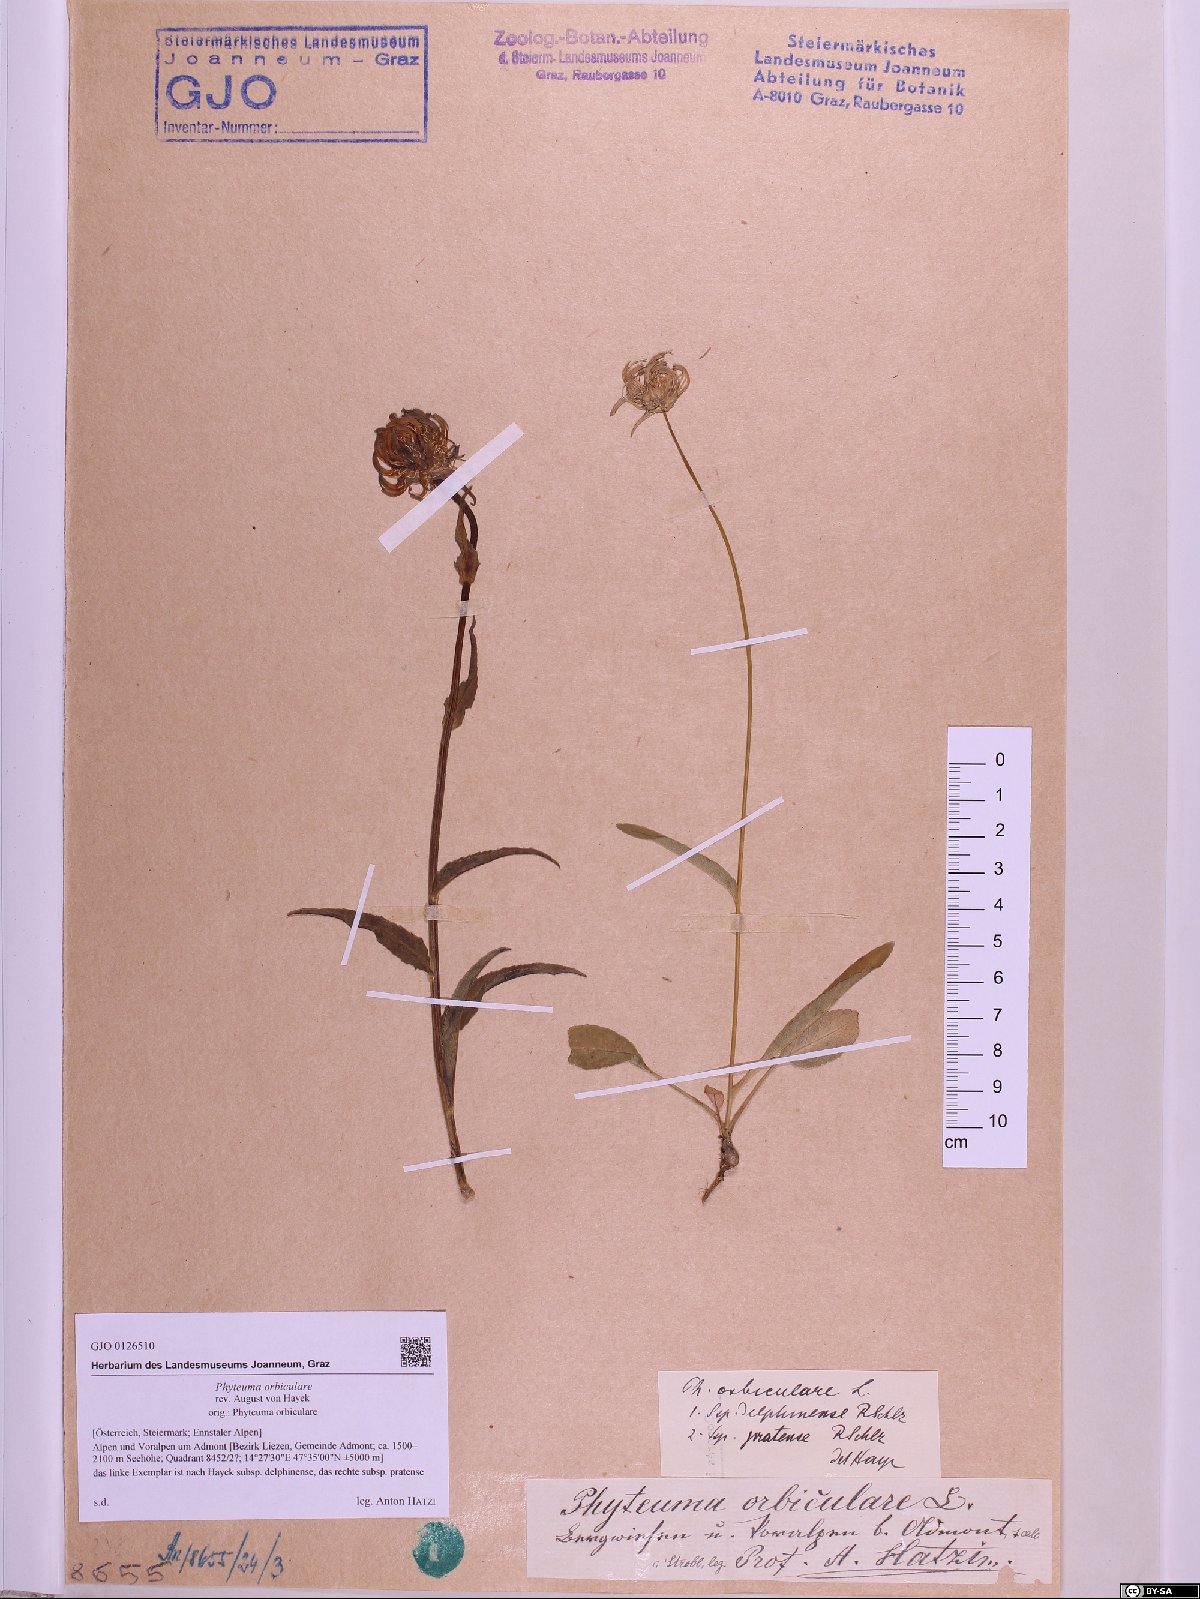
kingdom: Plantae
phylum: Tracheophyta
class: Magnoliopsida
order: Asterales
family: Campanulaceae
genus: Phyteuma
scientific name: Phyteuma orbiculare
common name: Round-headed rampion
